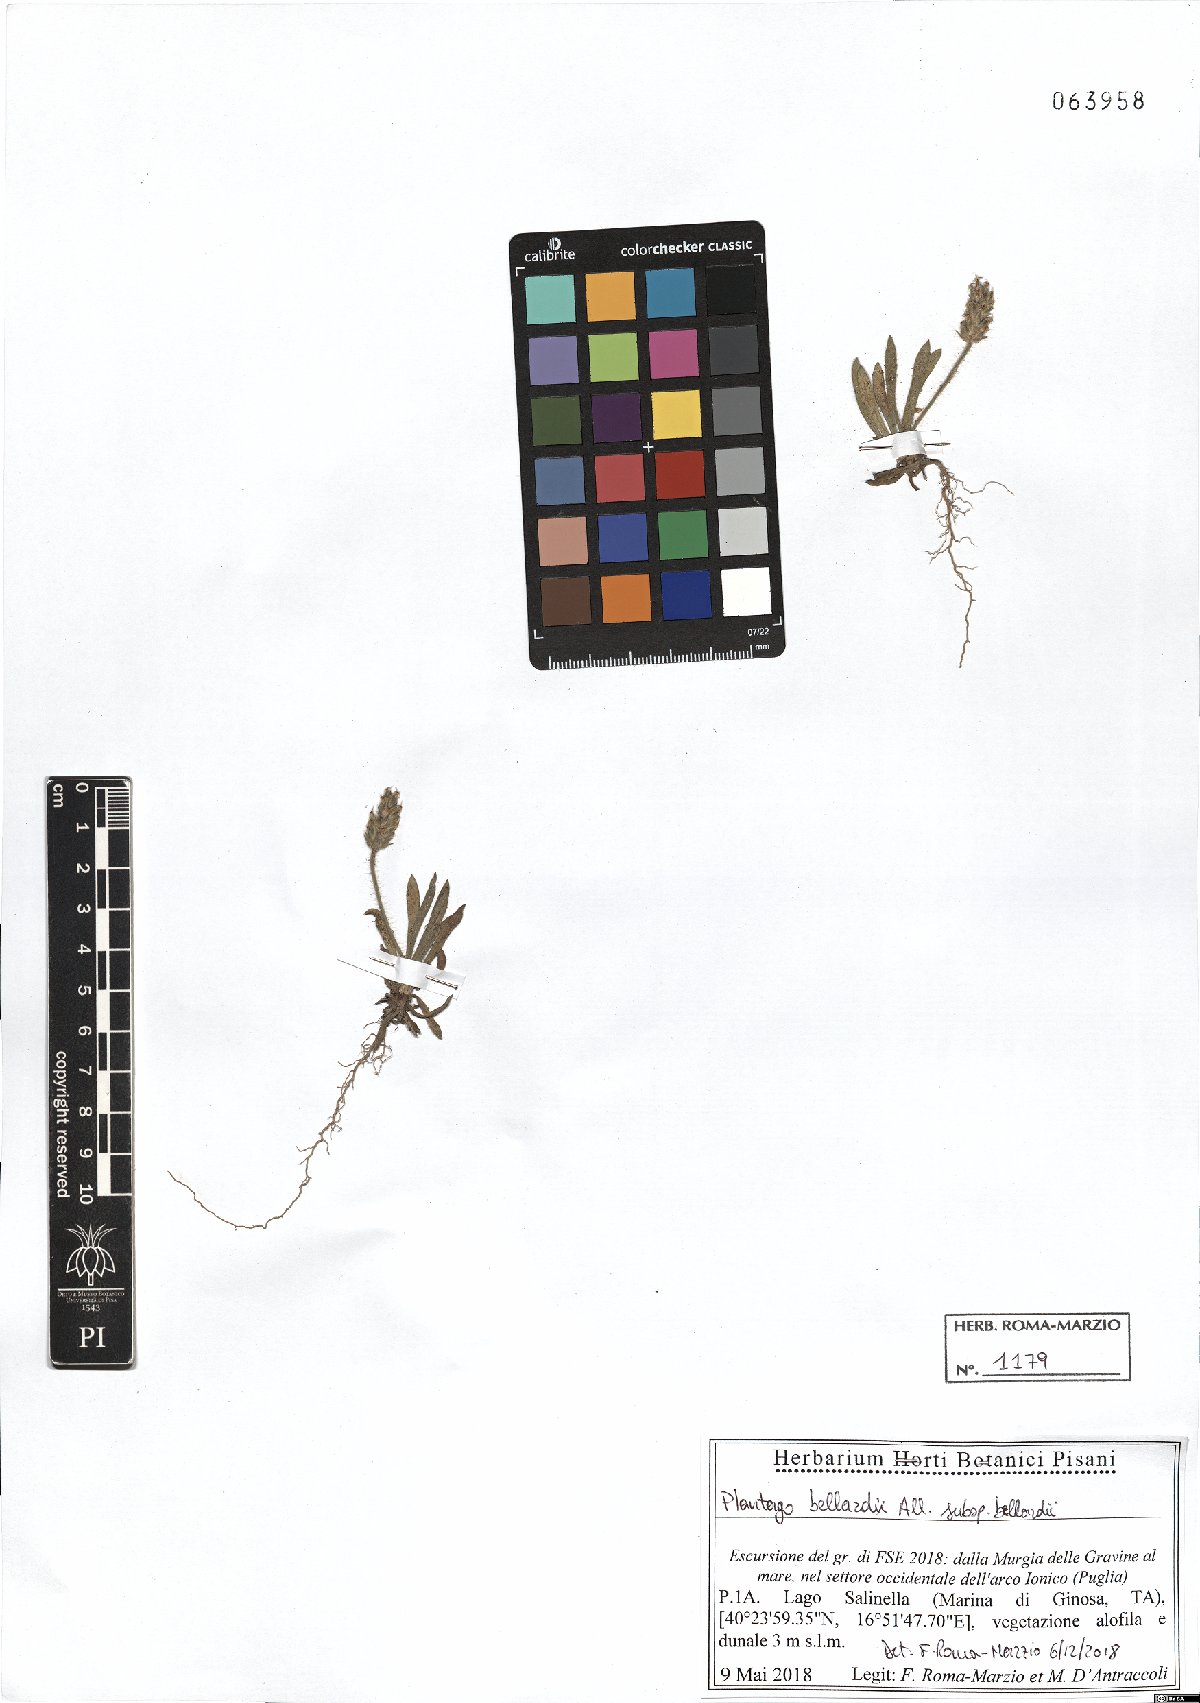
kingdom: Plantae
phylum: Tracheophyta
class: Magnoliopsida
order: Lamiales
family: Plantaginaceae
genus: Plantago
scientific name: Plantago bellardii
